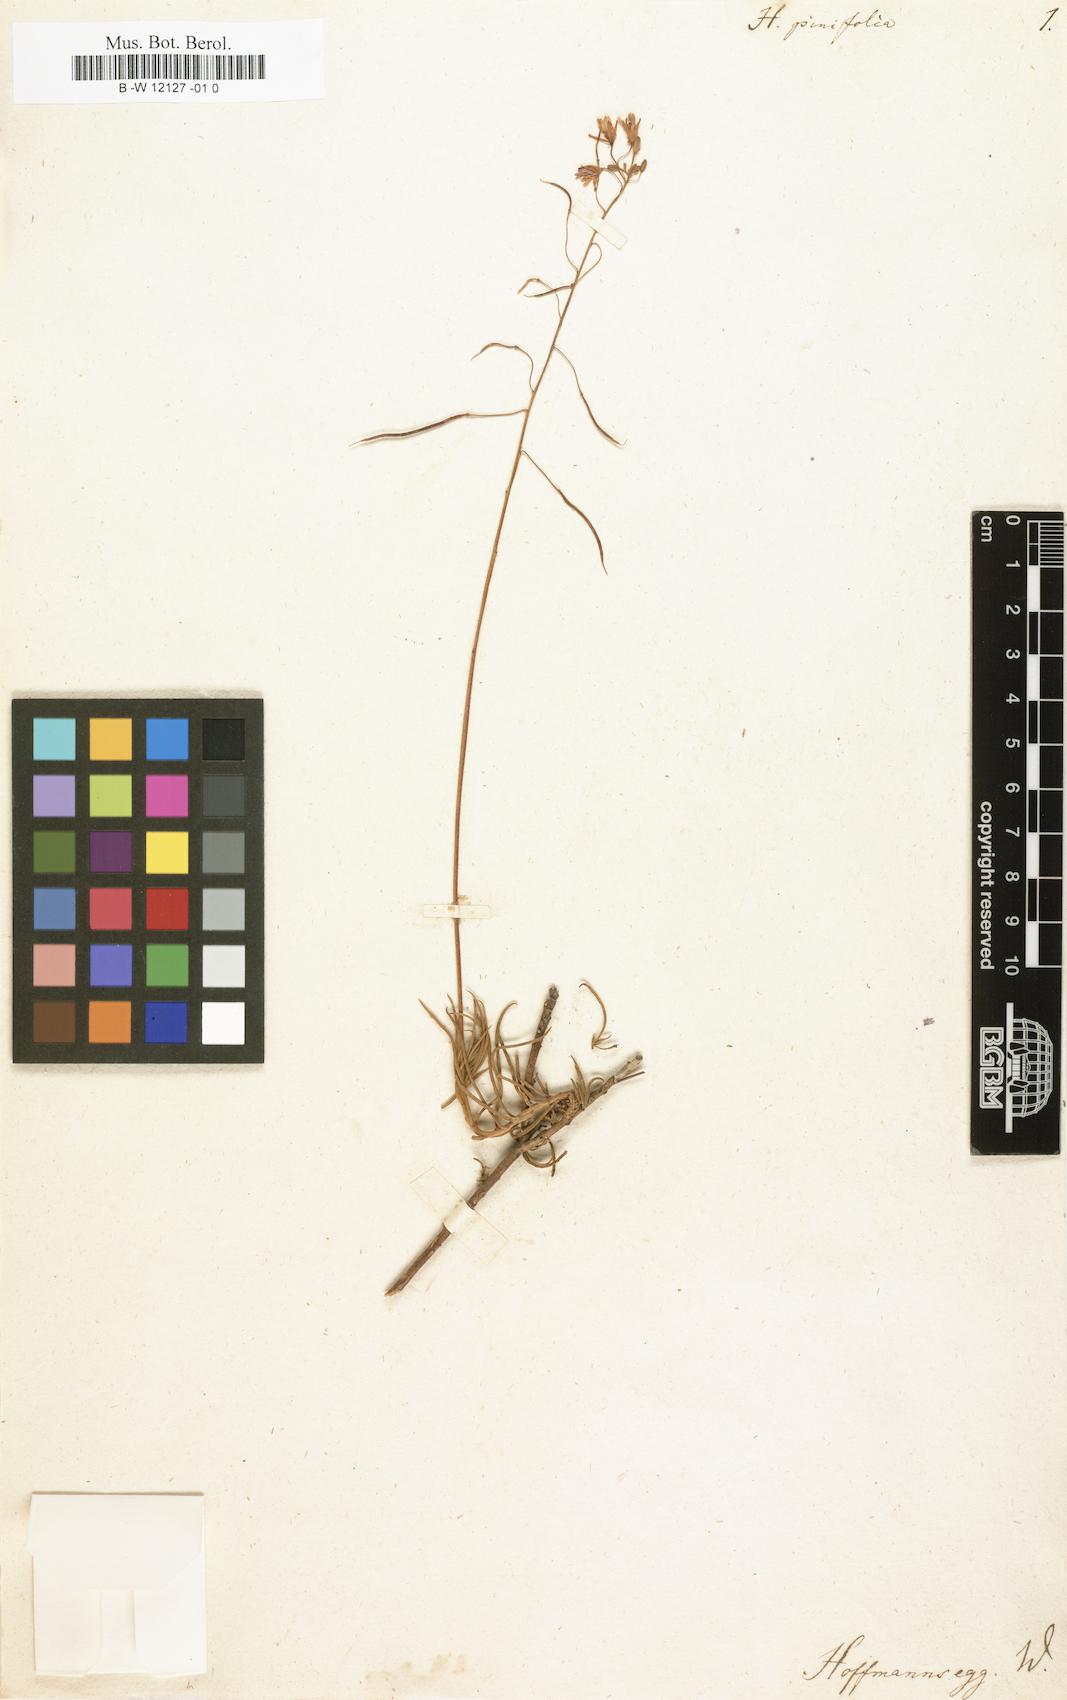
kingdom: Plantae
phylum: Tracheophyta
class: Magnoliopsida
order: Brassicales
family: Brassicaceae
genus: Heliophila
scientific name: Heliophila
